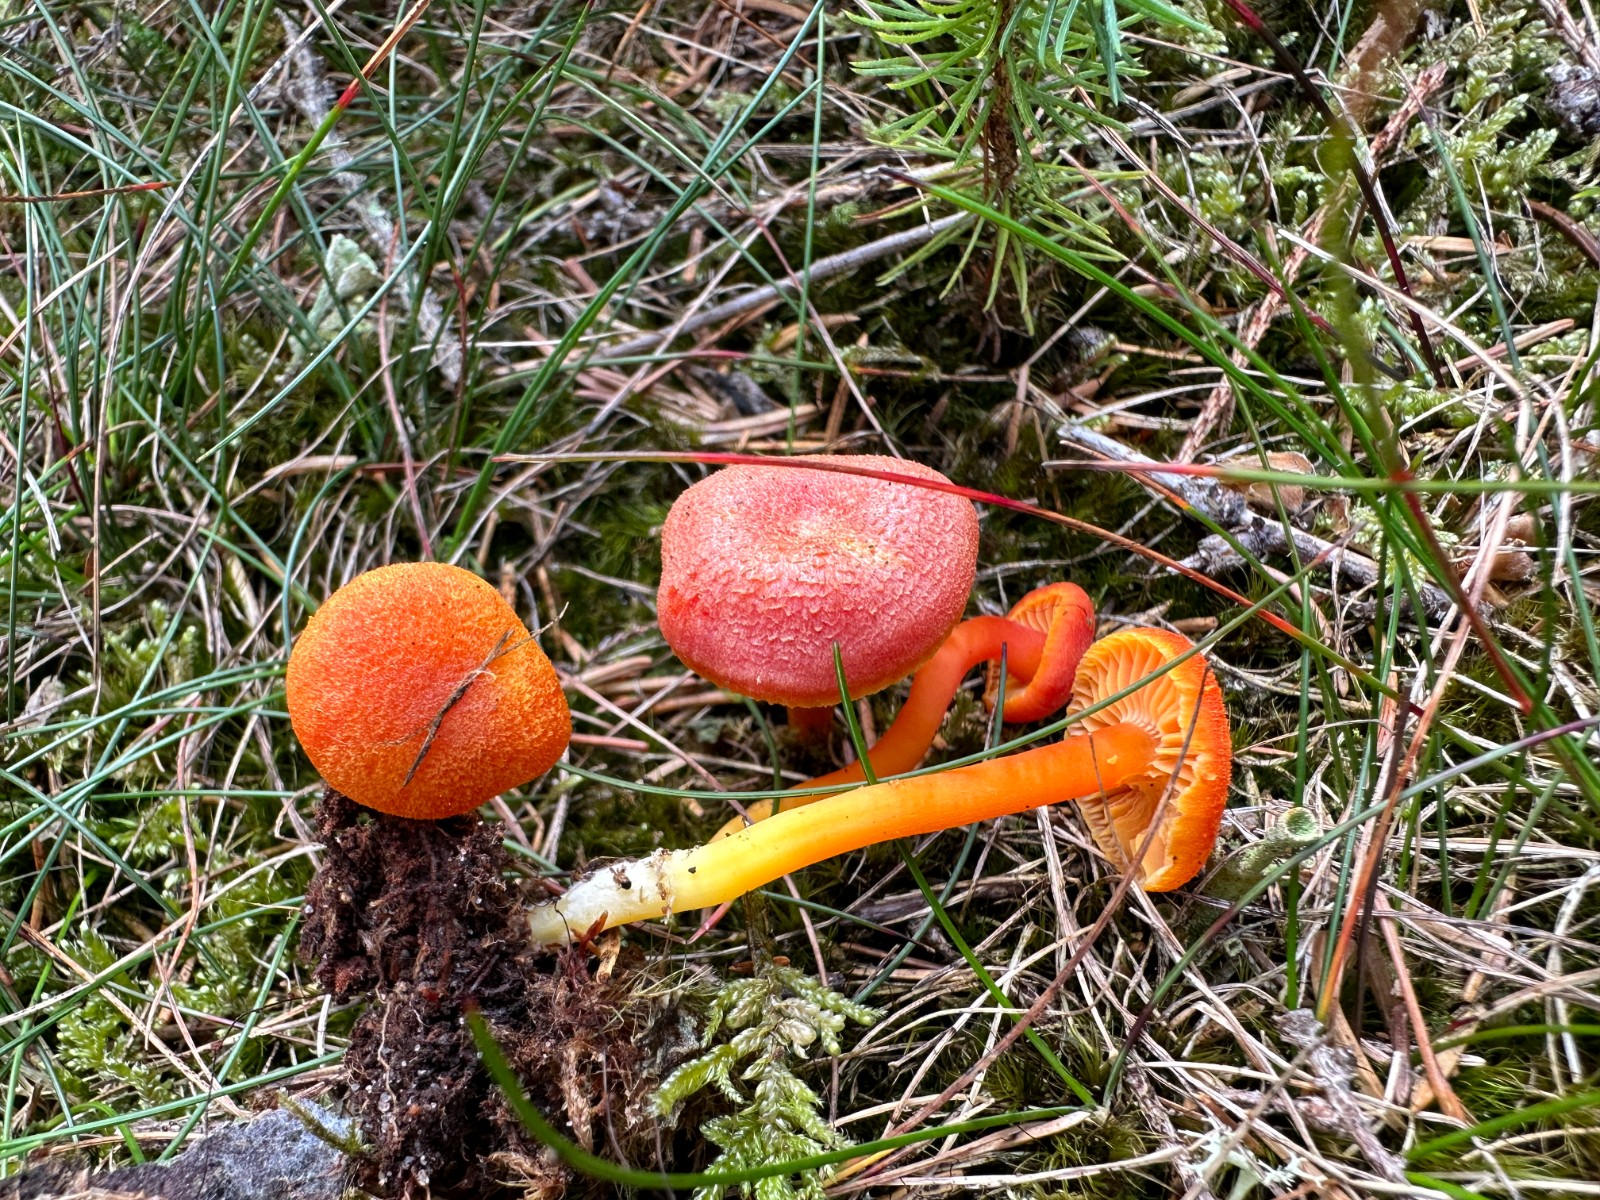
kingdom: Fungi
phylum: Basidiomycota
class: Agaricomycetes
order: Agaricales
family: Hygrophoraceae
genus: Hygrocybe
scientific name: Hygrocybe miniata
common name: mønje-vokshat
